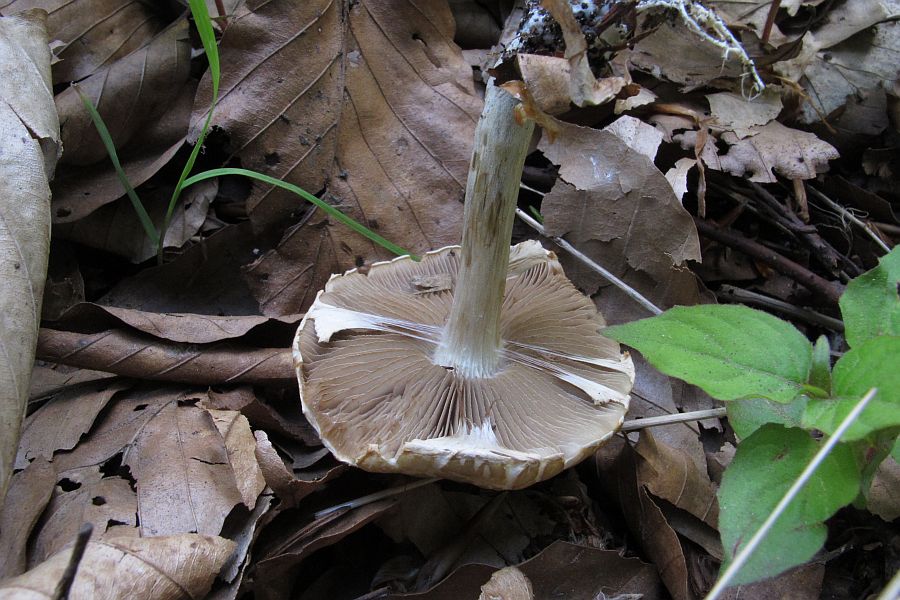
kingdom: Fungi
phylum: Basidiomycota
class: Agaricomycetes
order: Agaricales
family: Strophariaceae
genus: Agrocybe
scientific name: Agrocybe praecox
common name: tidlig agerhat
